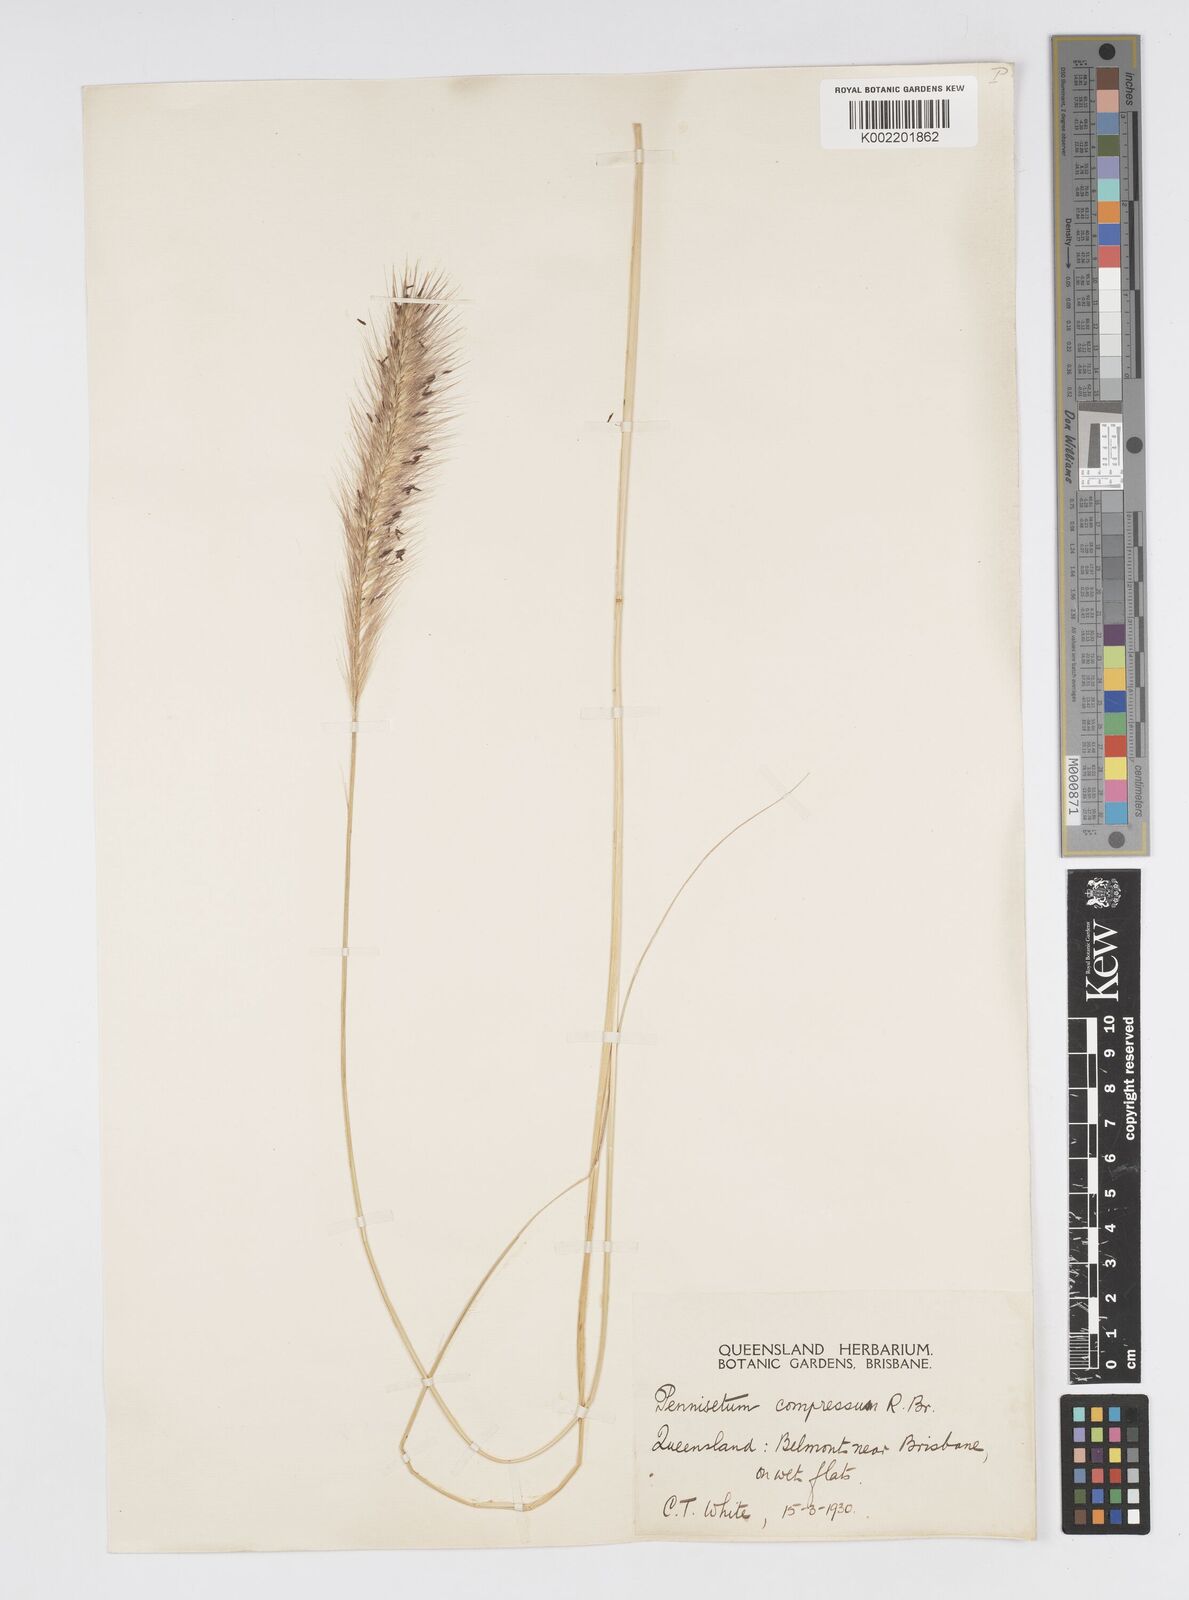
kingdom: Plantae
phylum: Tracheophyta
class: Liliopsida
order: Poales
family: Poaceae
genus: Cenchrus
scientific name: Cenchrus alopecuroides
